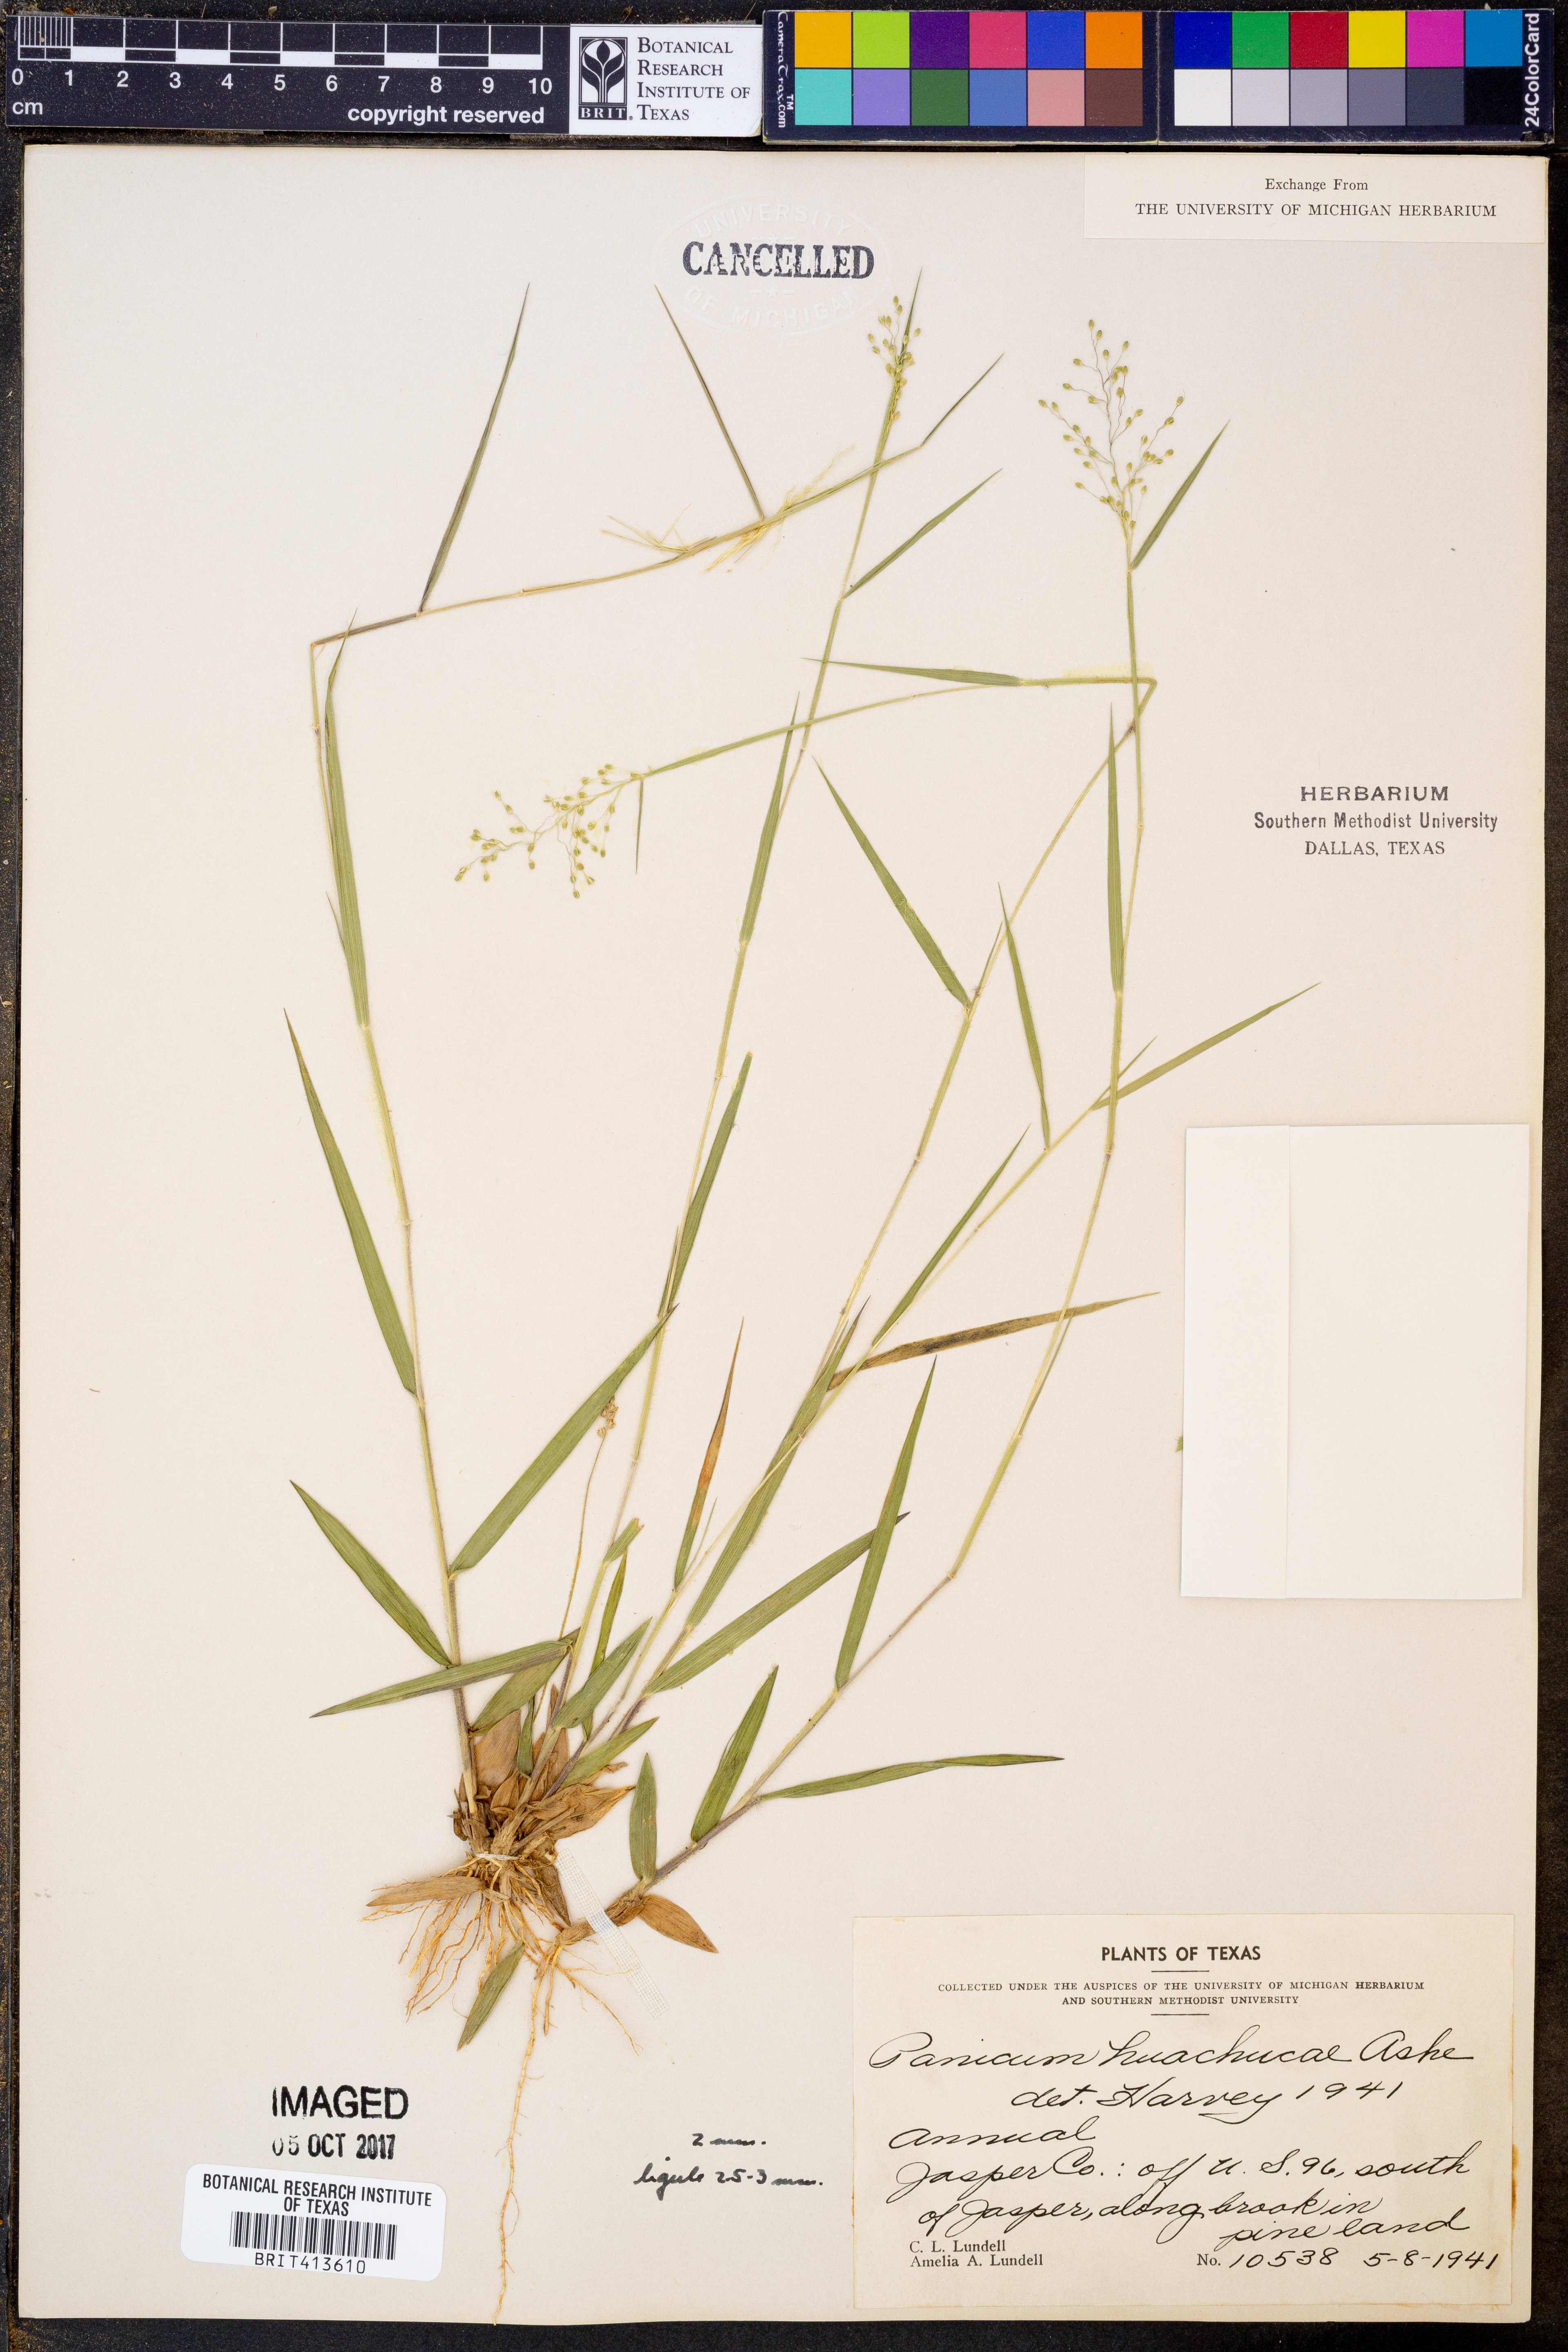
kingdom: Plantae
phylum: Tracheophyta
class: Liliopsida
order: Poales
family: Poaceae
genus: Dichanthelium
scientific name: Dichanthelium lanuginosum
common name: Woolly panicgrass
